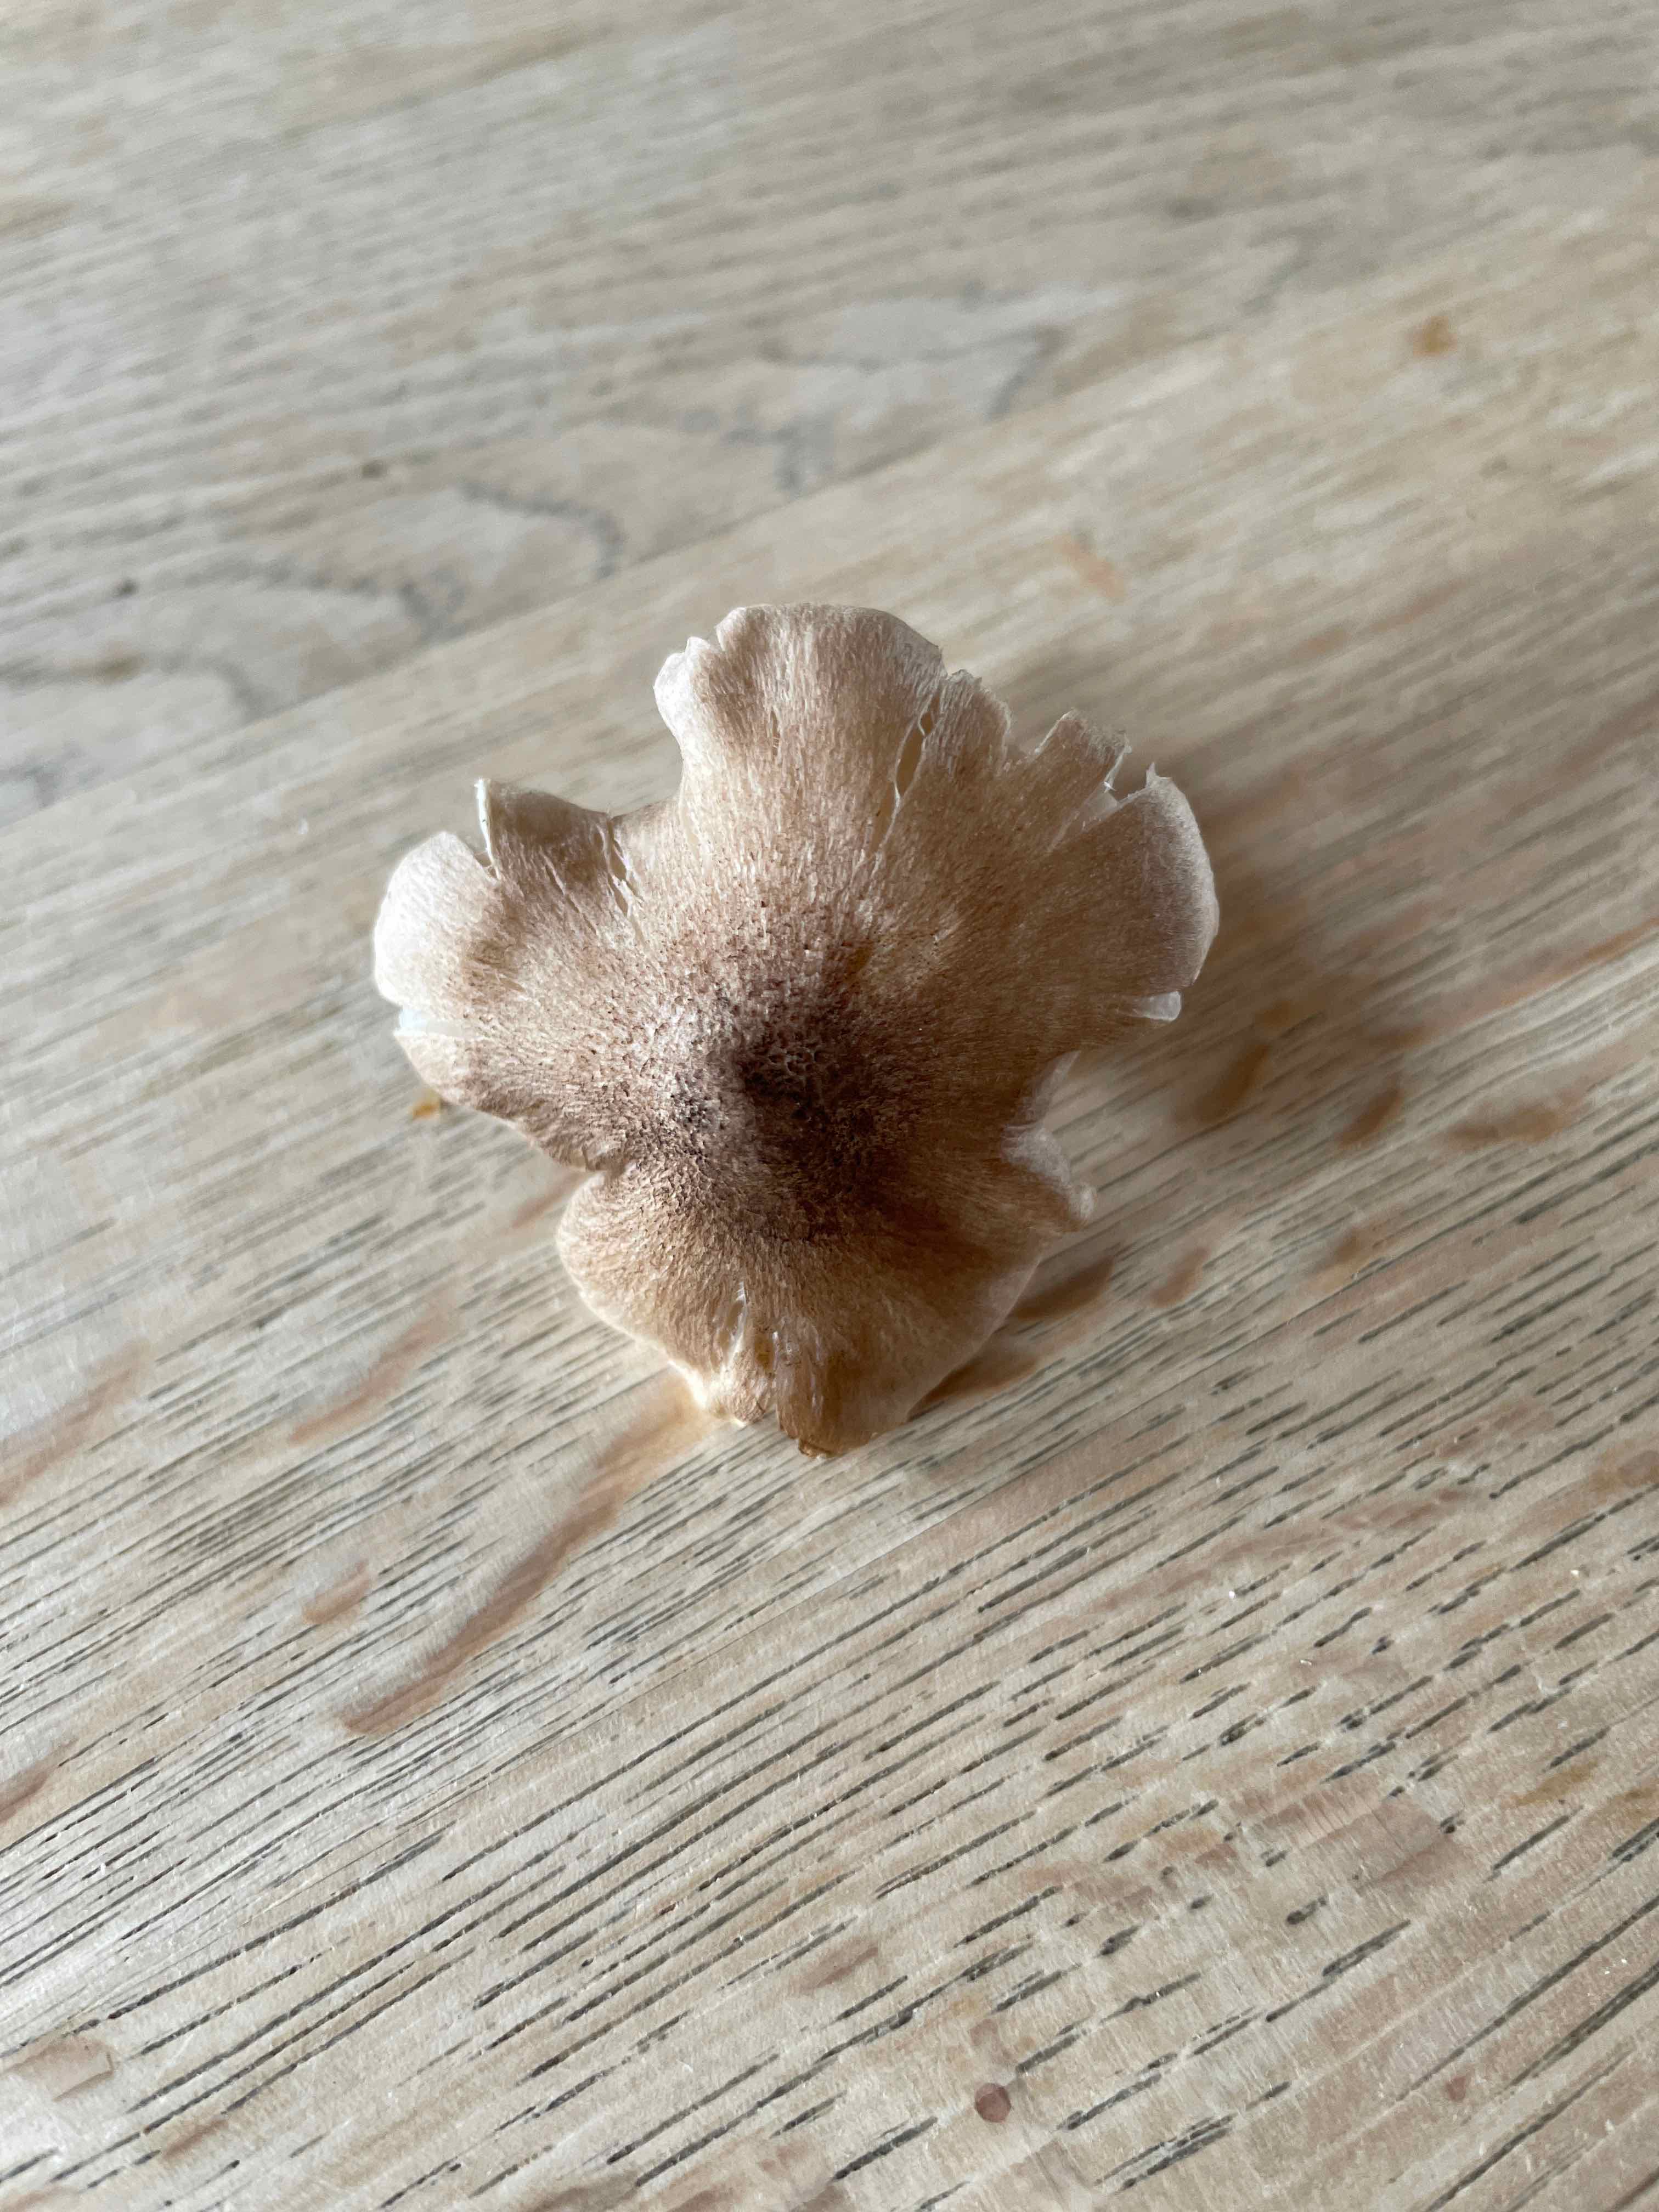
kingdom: Fungi
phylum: Basidiomycota
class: Agaricomycetes
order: Agaricales
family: Tricholomataceae
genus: Tricholoma
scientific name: Tricholoma
